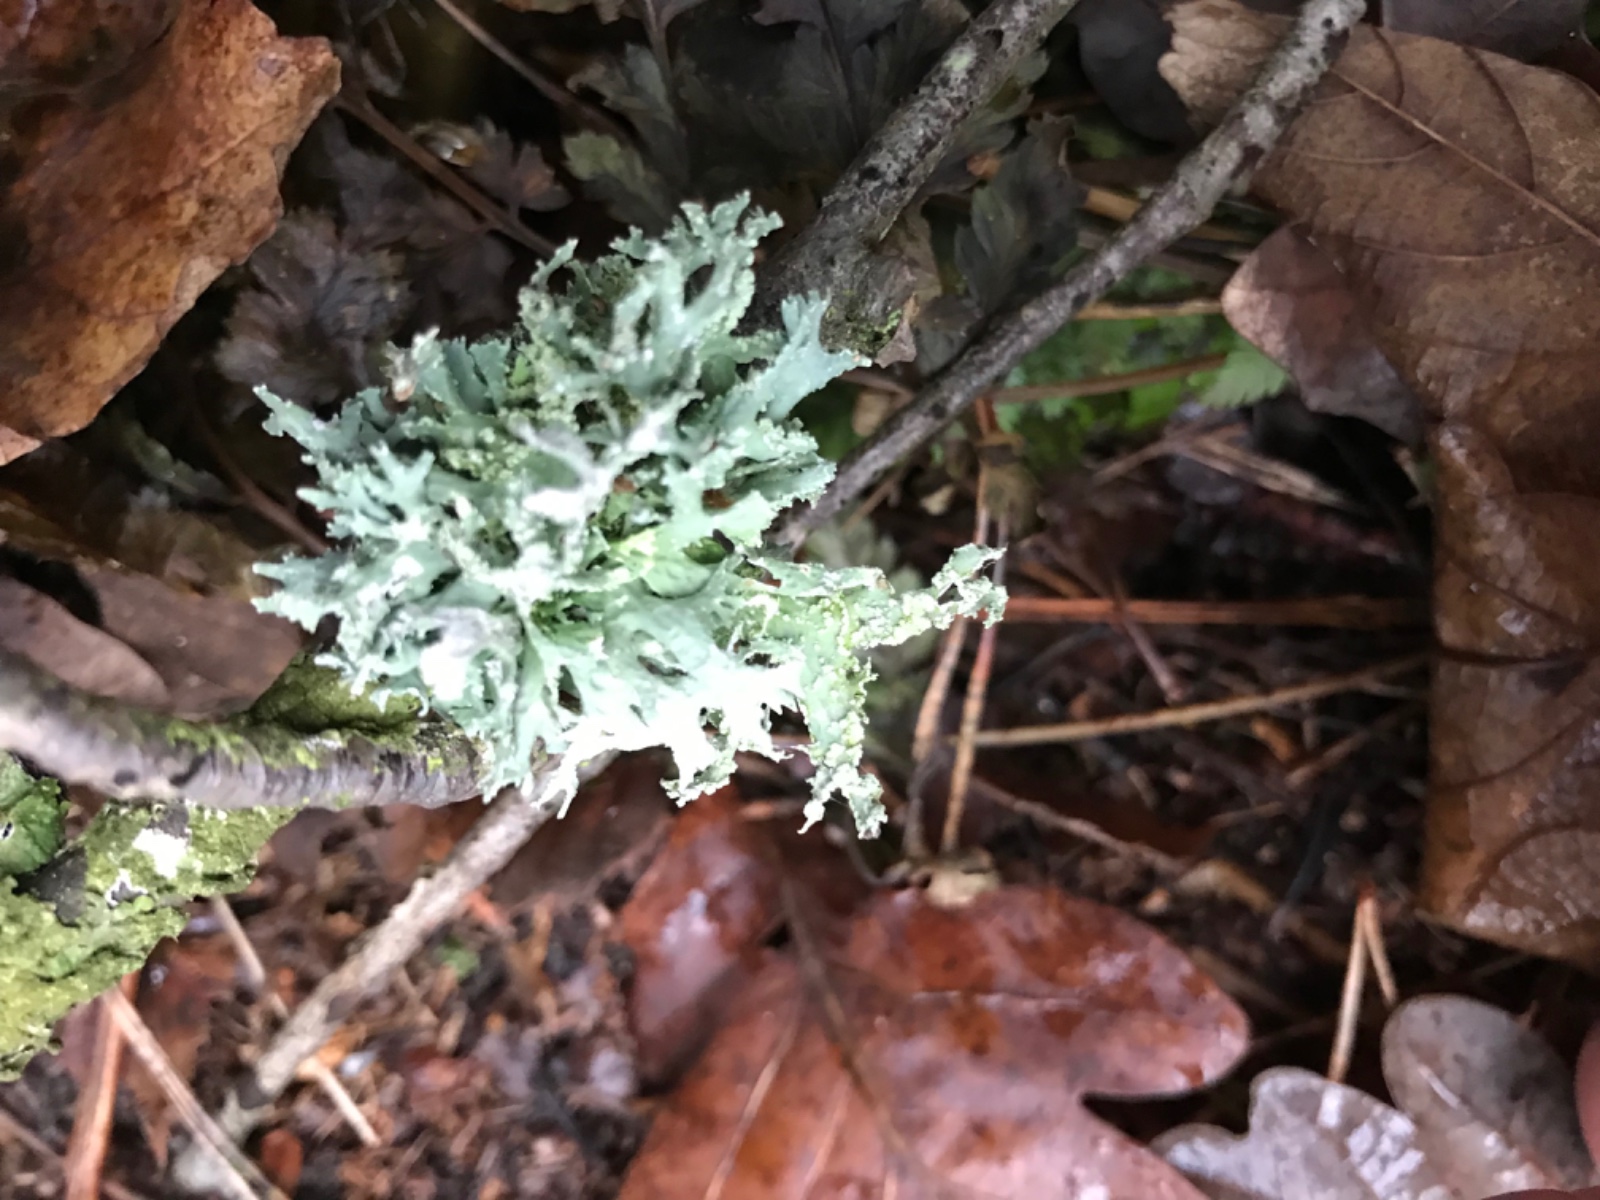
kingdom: Fungi
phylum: Ascomycota
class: Lecanoromycetes
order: Lecanorales
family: Parmeliaceae
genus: Evernia
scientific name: Evernia prunastri
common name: almindelig slåenlav
